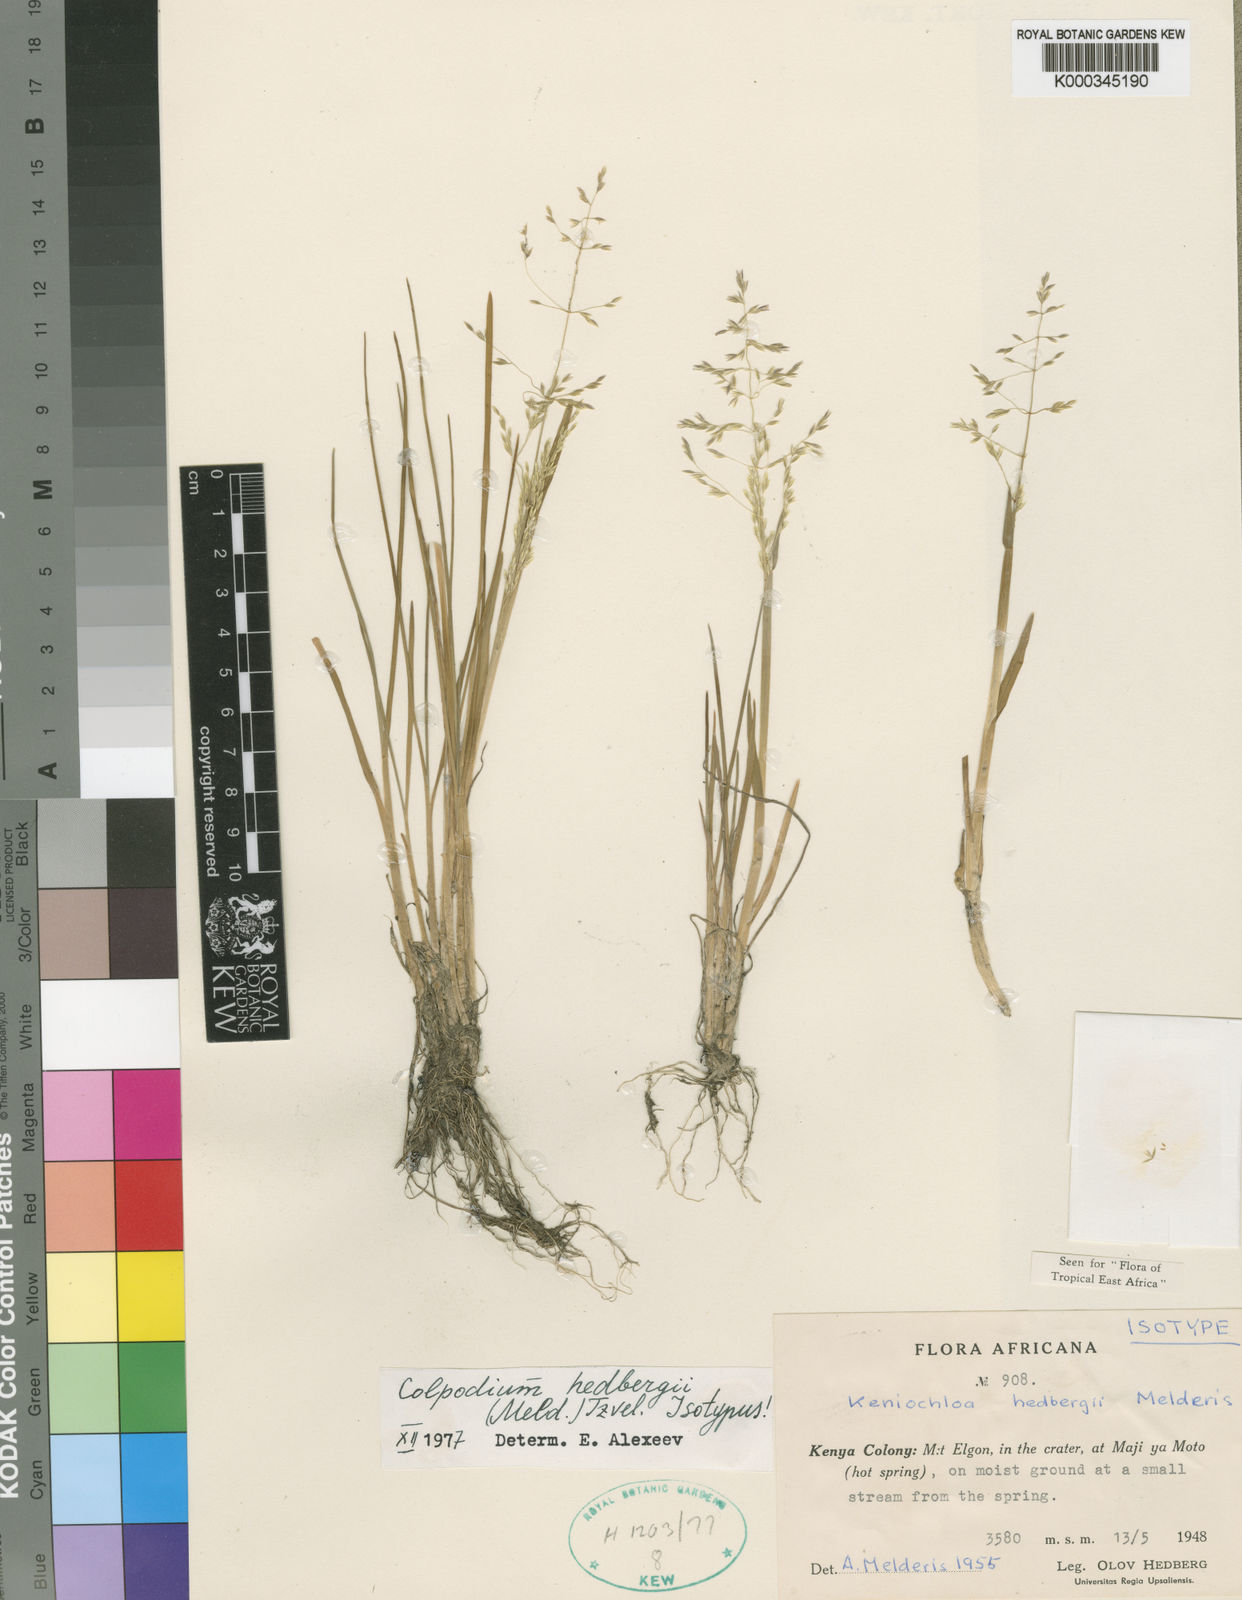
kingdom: Plantae
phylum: Tracheophyta
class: Liliopsida
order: Poales
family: Poaceae
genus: Colpodium
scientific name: Colpodium hedbergii
